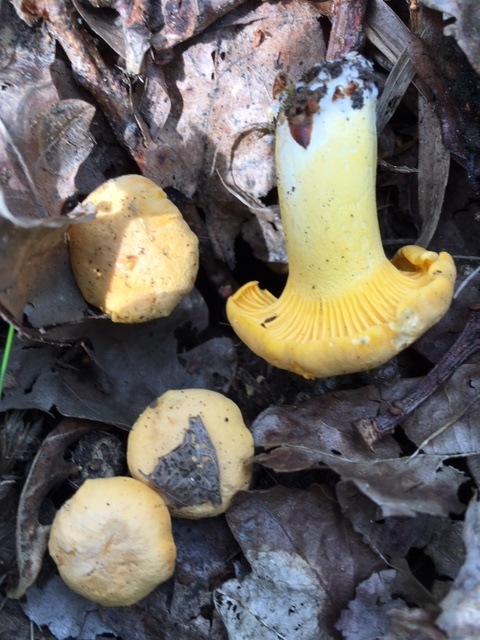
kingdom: Fungi
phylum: Basidiomycota
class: Agaricomycetes
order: Cantharellales
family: Hydnaceae
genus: Cantharellus
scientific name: Cantharellus cibarius
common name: almindelig kantarel
